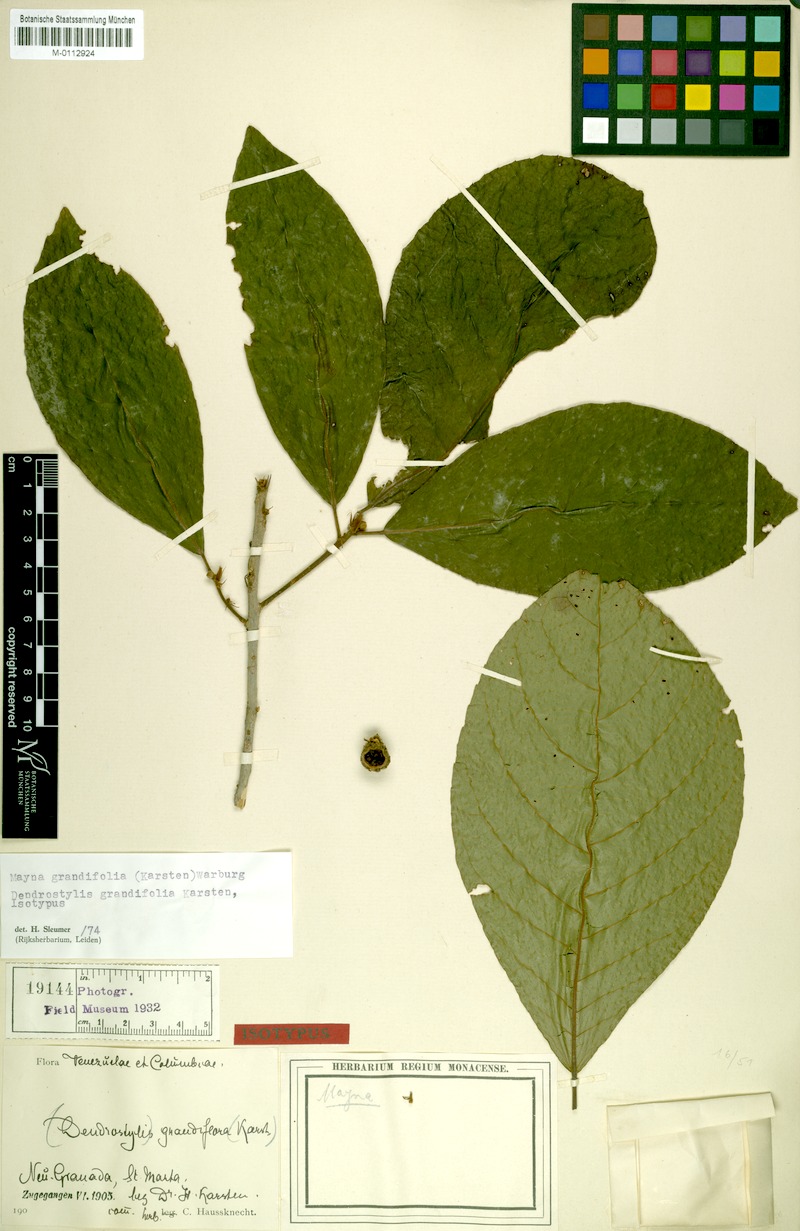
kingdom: Plantae
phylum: Tracheophyta
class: Magnoliopsida
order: Malpighiales
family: Achariaceae
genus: Mayna
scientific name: Mayna grandifolia
